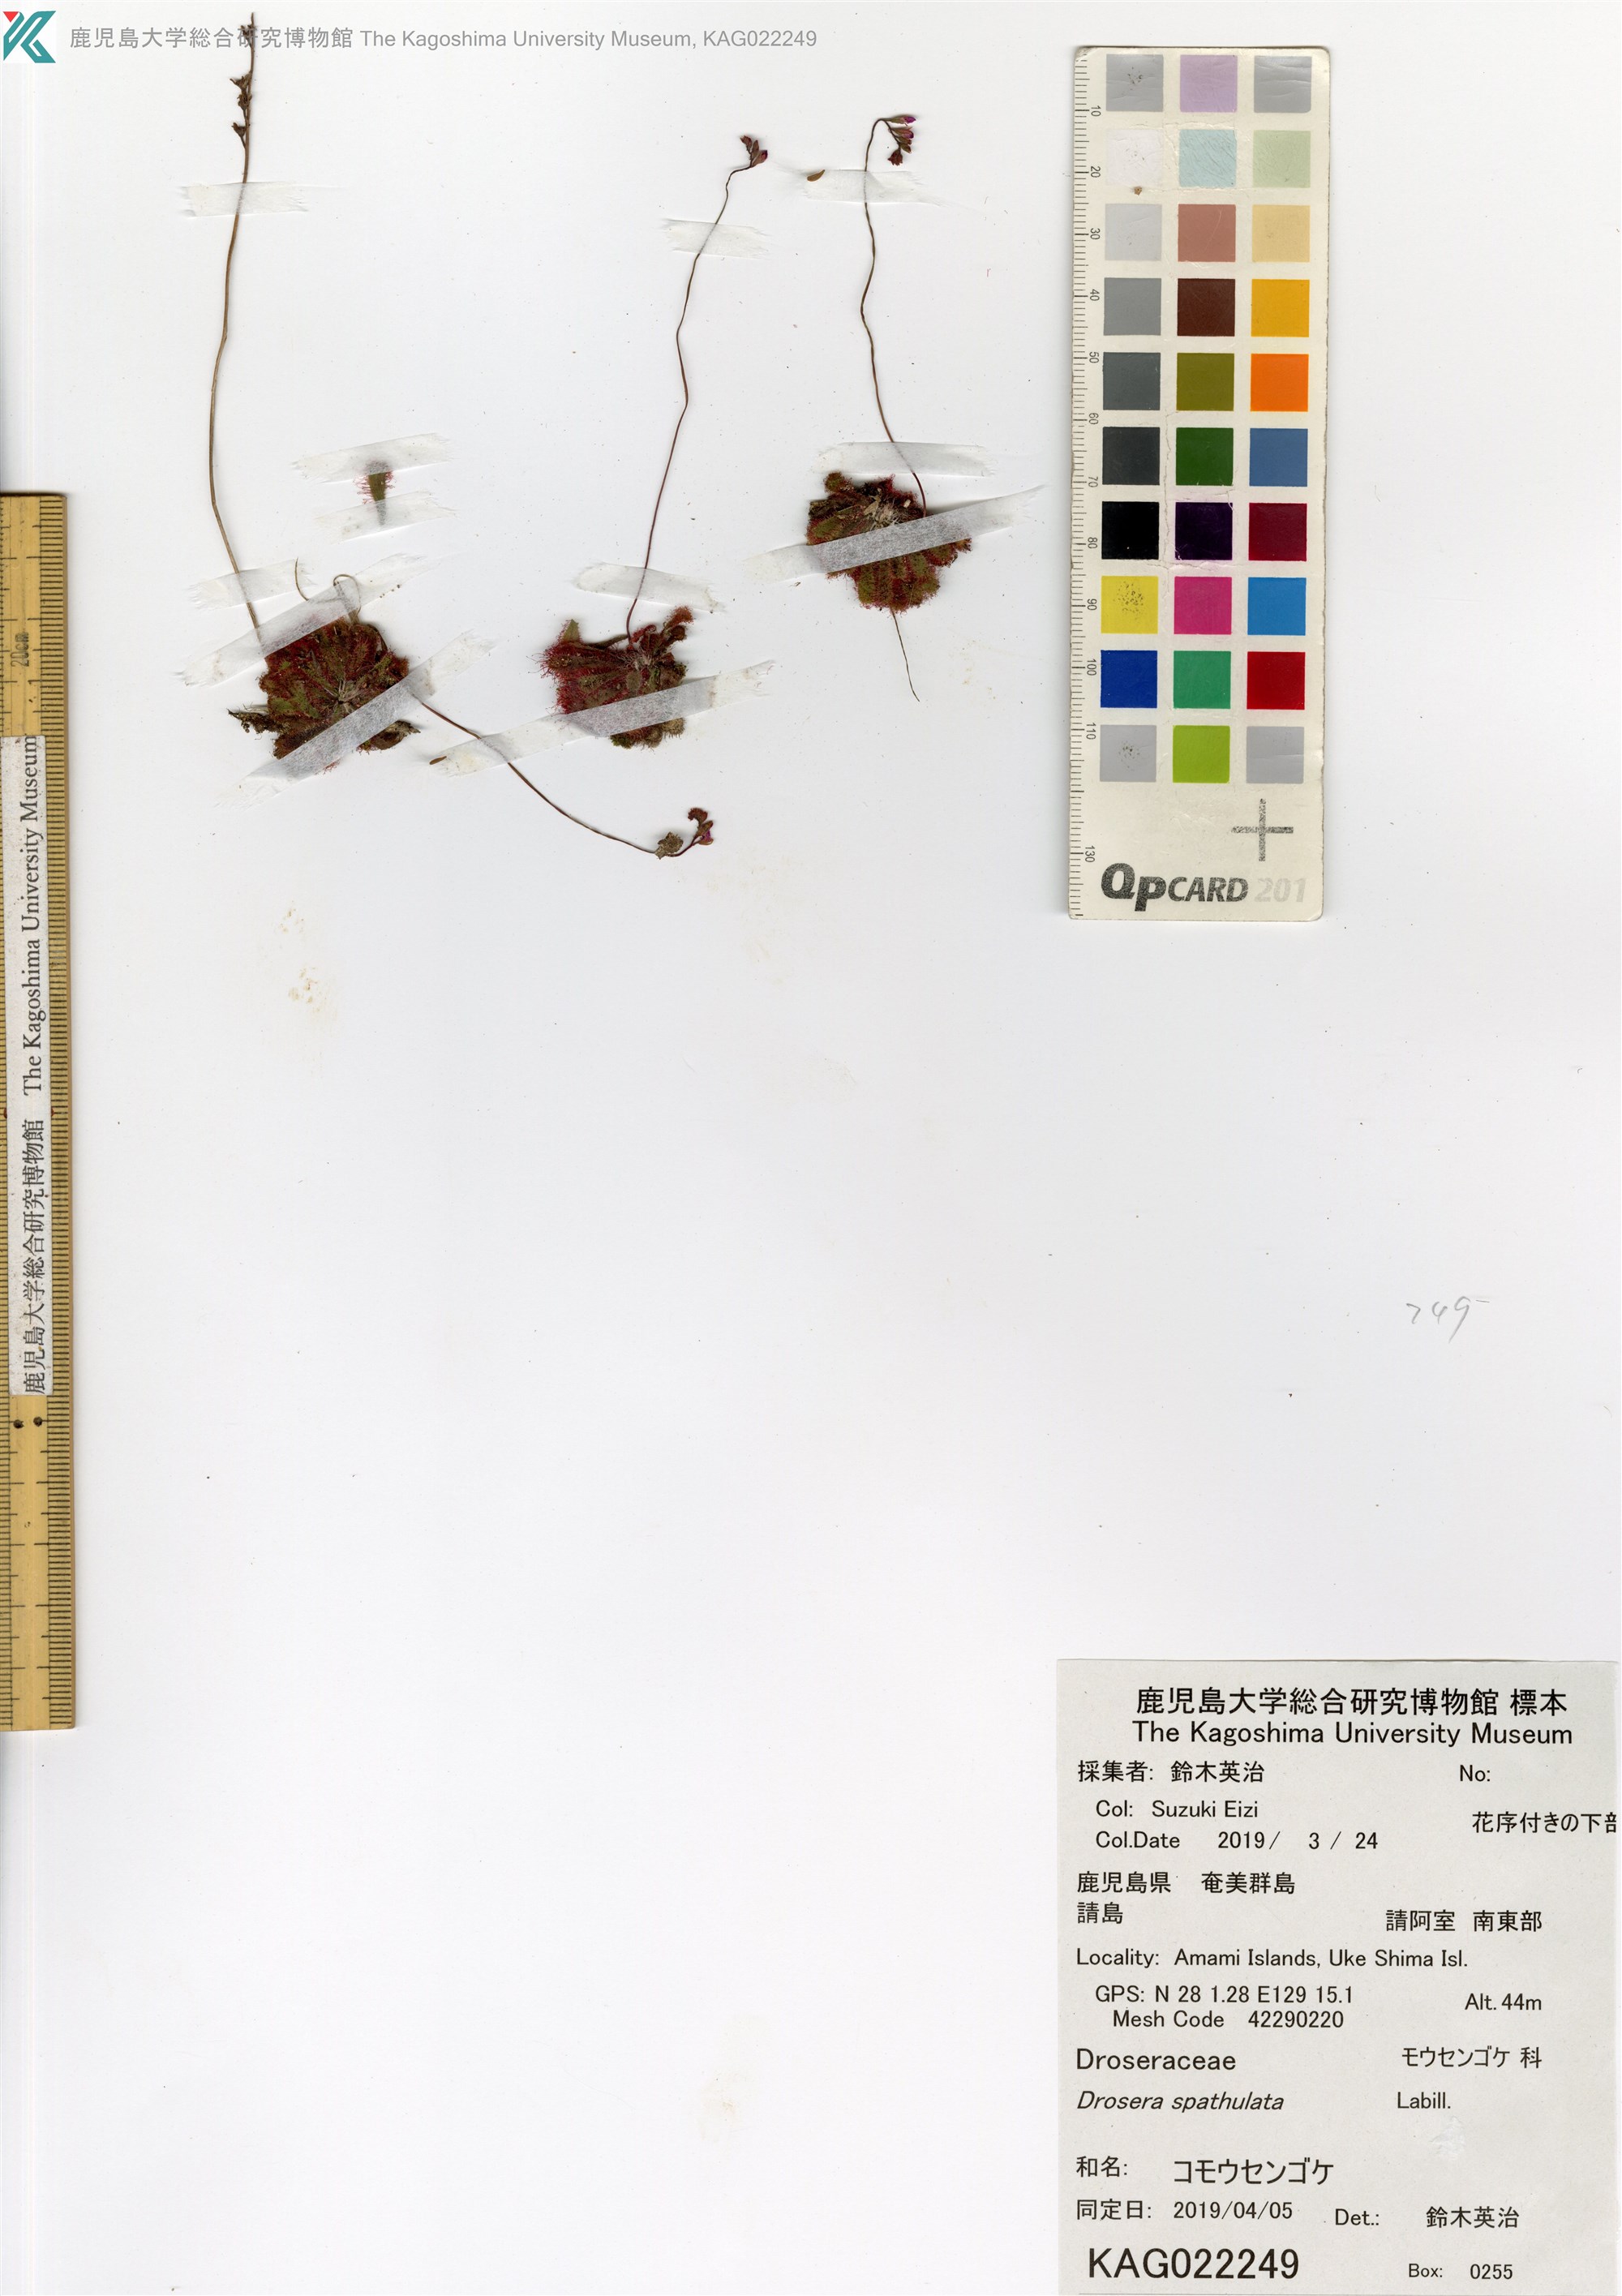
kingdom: Plantae
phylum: Tracheophyta
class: Magnoliopsida
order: Caryophyllales
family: Droseraceae
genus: Drosera
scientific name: Drosera spatulata
